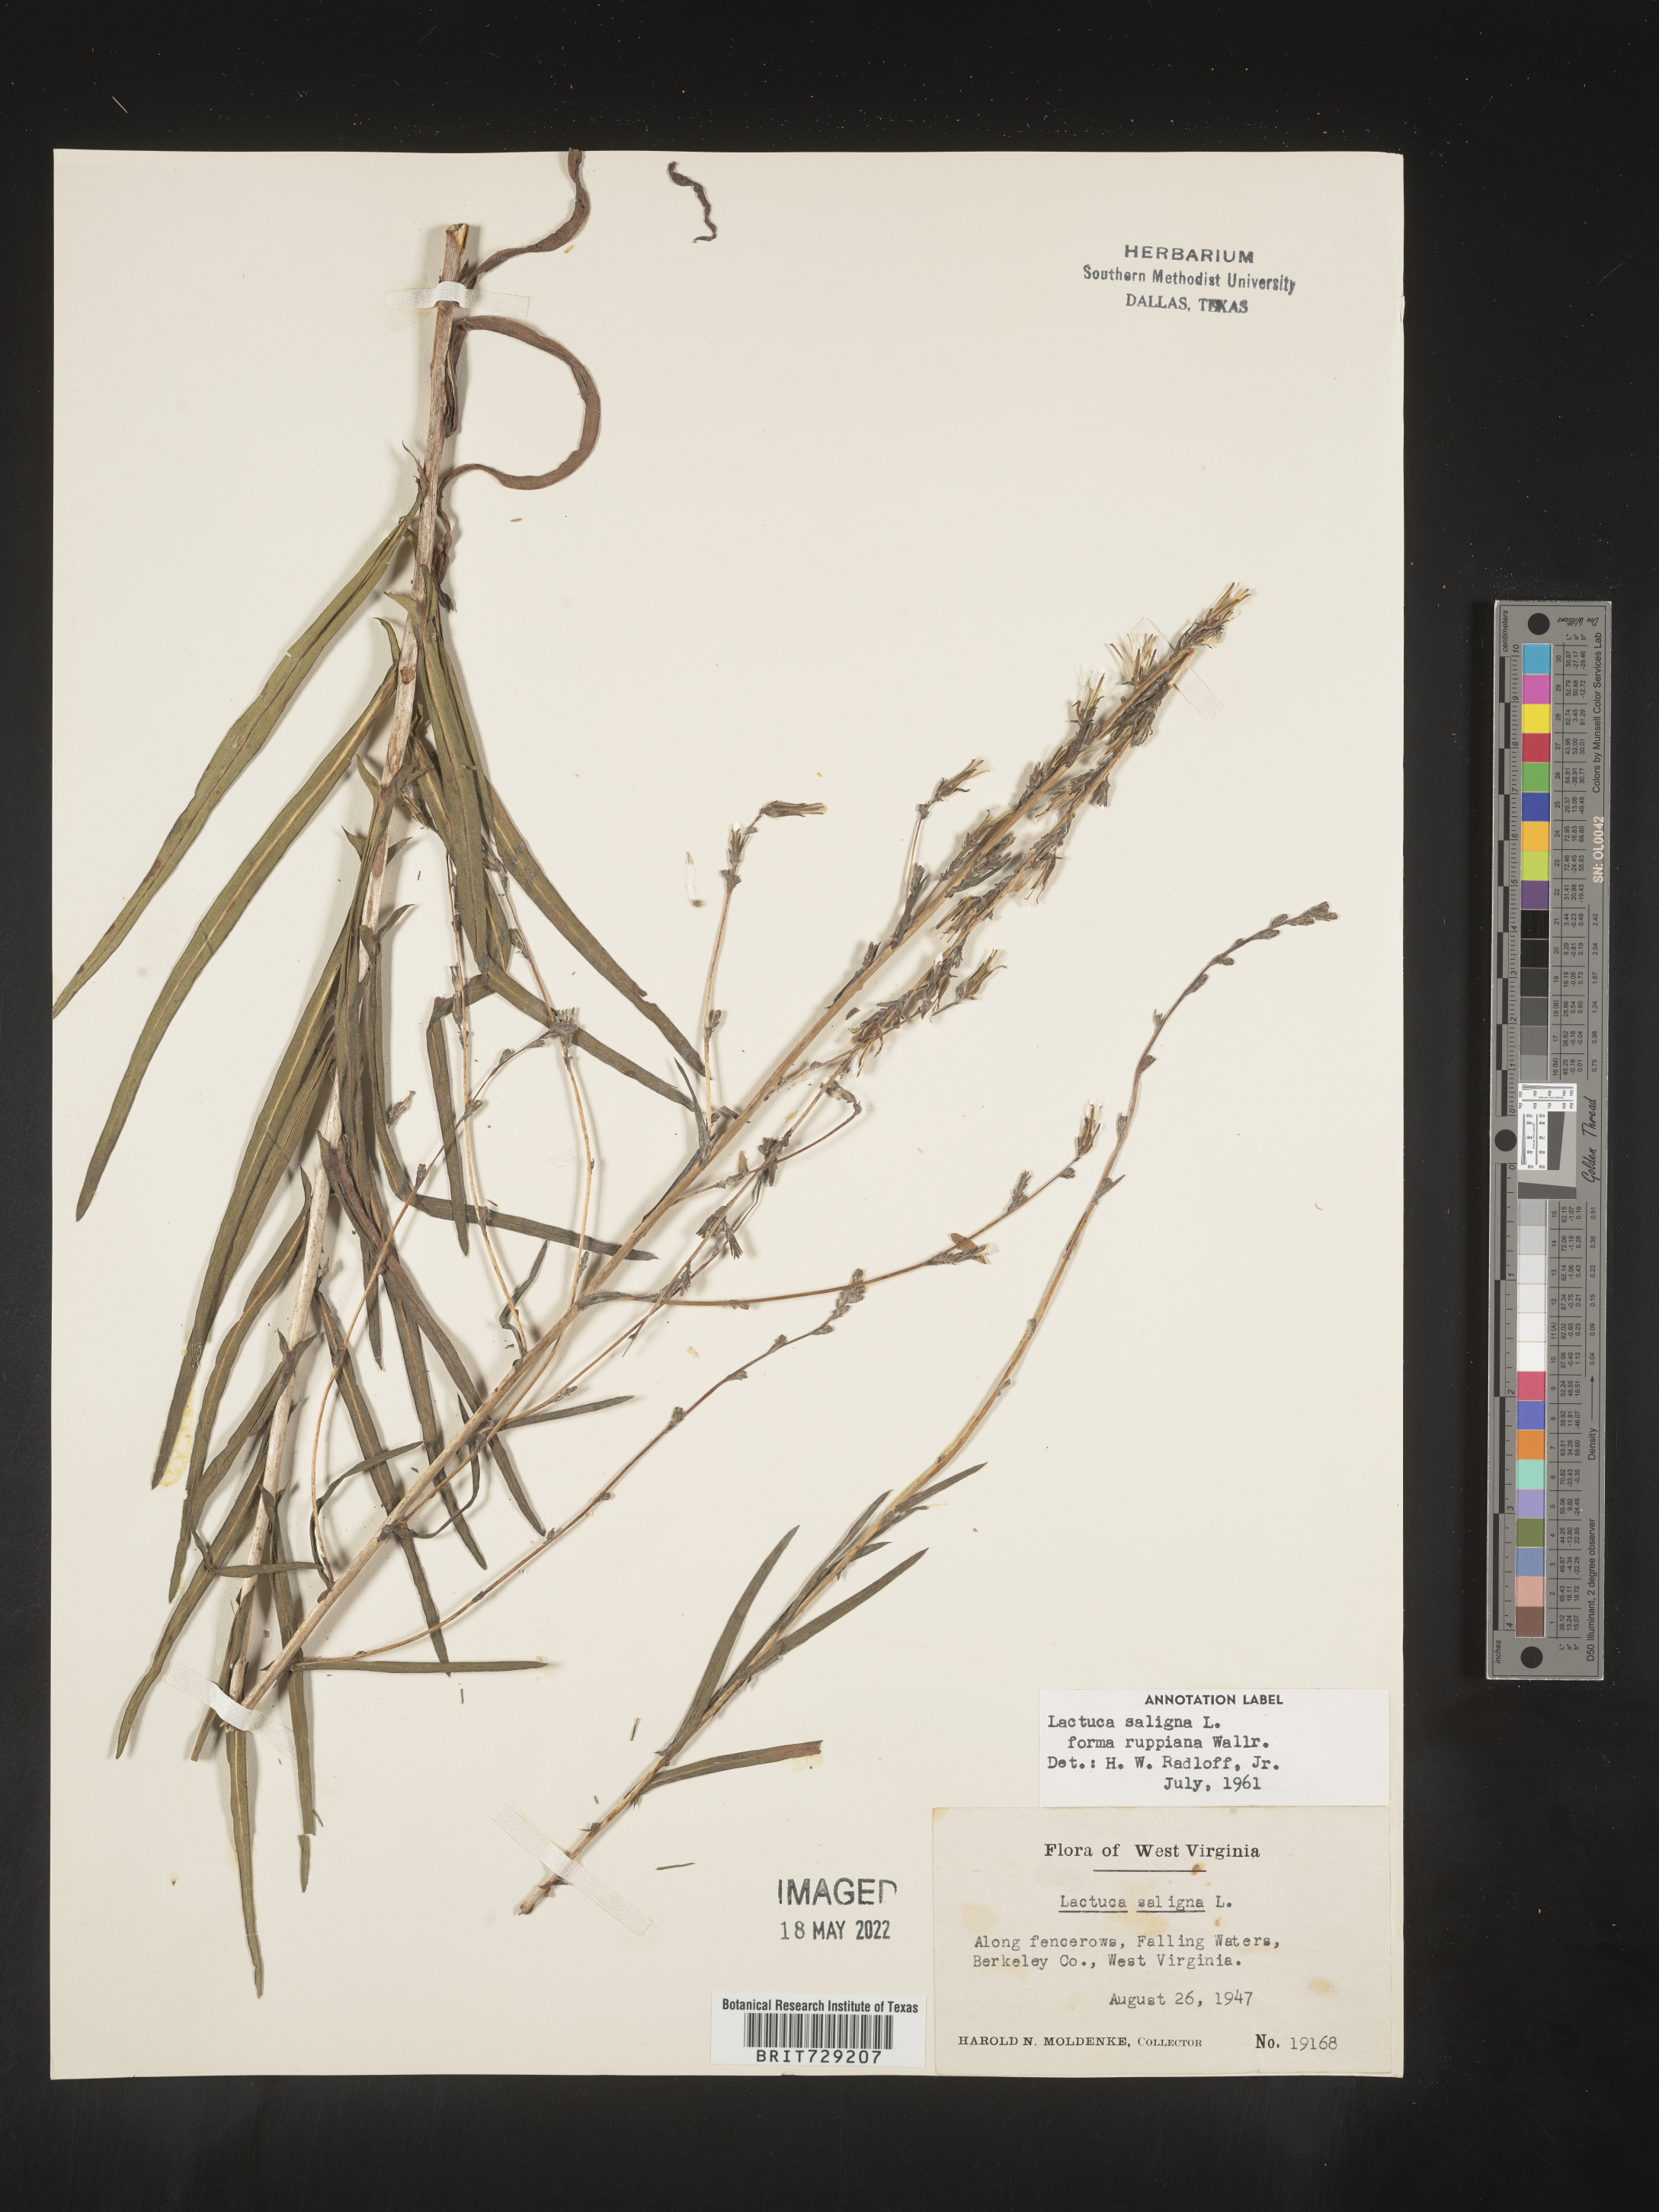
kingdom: Plantae
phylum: Tracheophyta
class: Magnoliopsida
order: Asterales
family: Asteraceae
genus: Lactuca
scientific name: Lactuca saligna
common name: Wild lettuce
